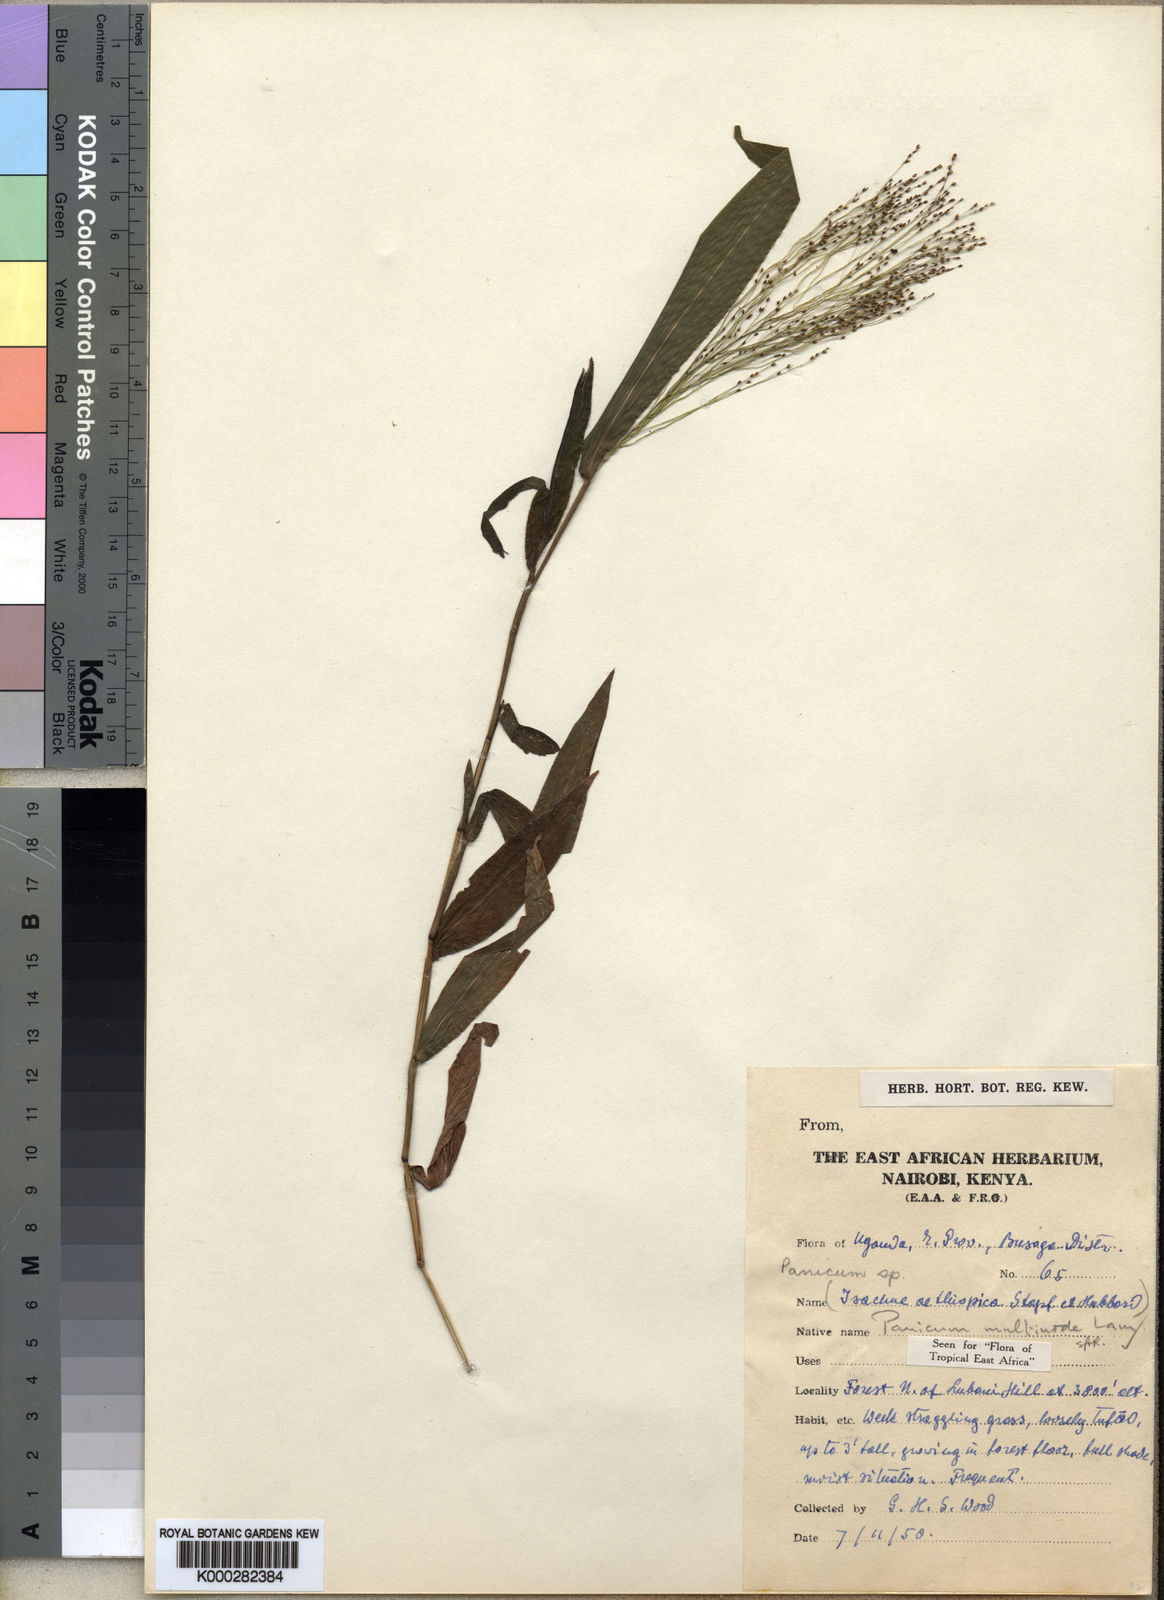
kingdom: Plantae
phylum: Tracheophyta
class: Liliopsida
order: Poales
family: Poaceae
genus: Cyrtococcum
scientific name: Cyrtococcum multinode
